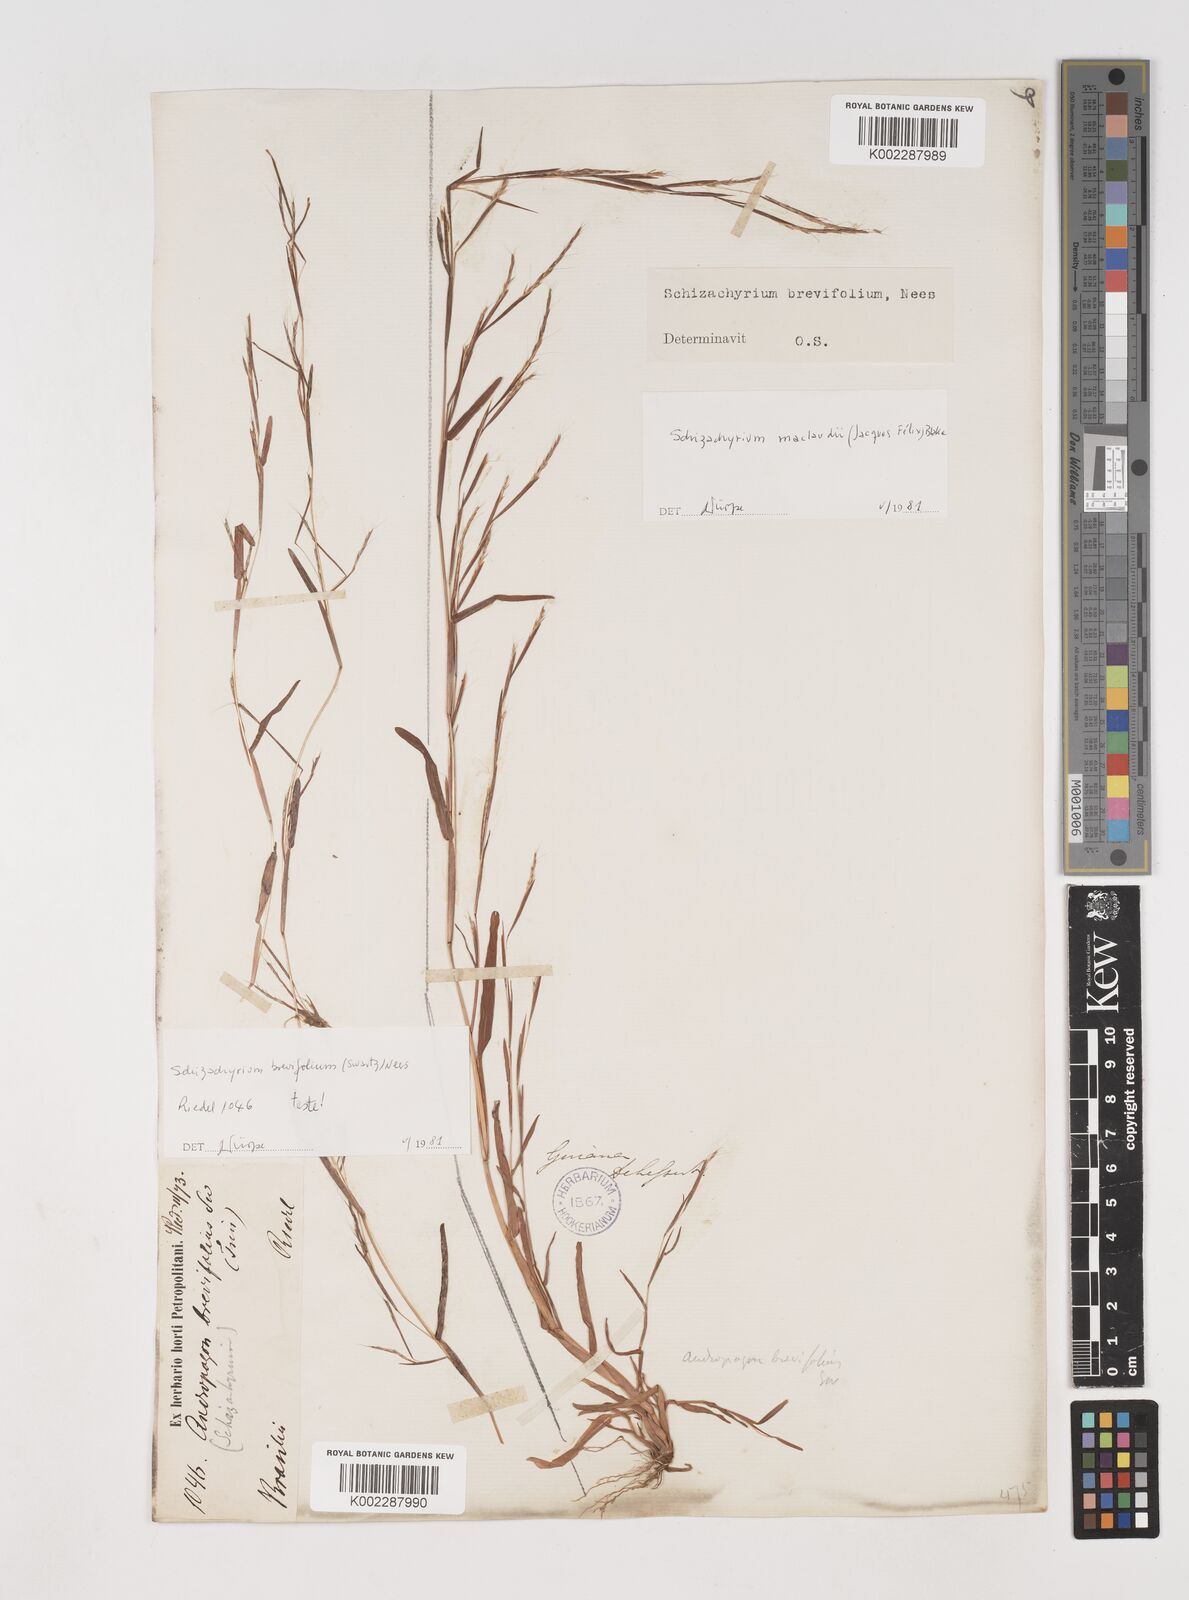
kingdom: Plantae
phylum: Tracheophyta
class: Liliopsida
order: Poales
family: Poaceae
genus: Schizachyrium
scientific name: Schizachyrium maclaudii
